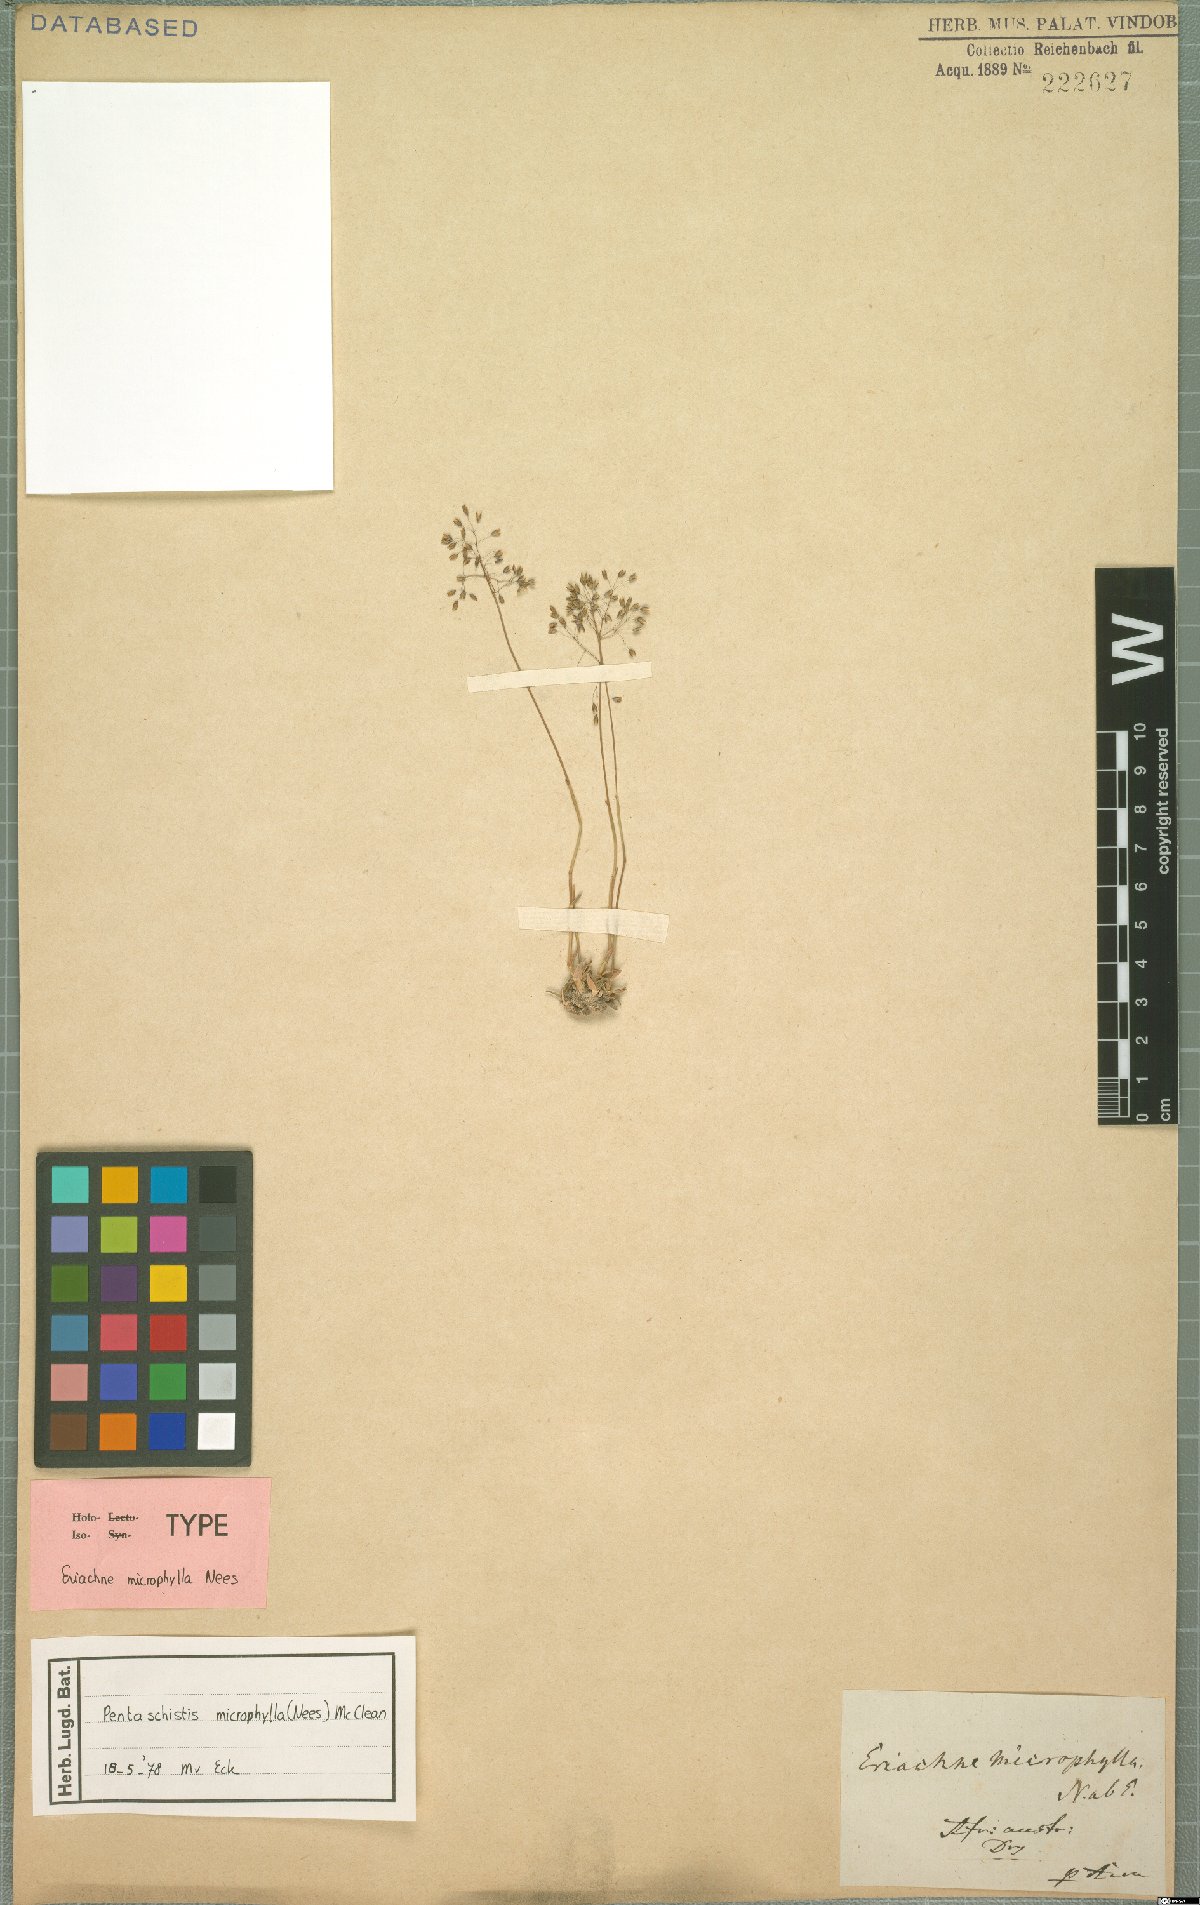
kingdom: Plantae
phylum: Tracheophyta
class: Liliopsida
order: Poales
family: Poaceae
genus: Pentameris
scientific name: Pentameris microphylla
